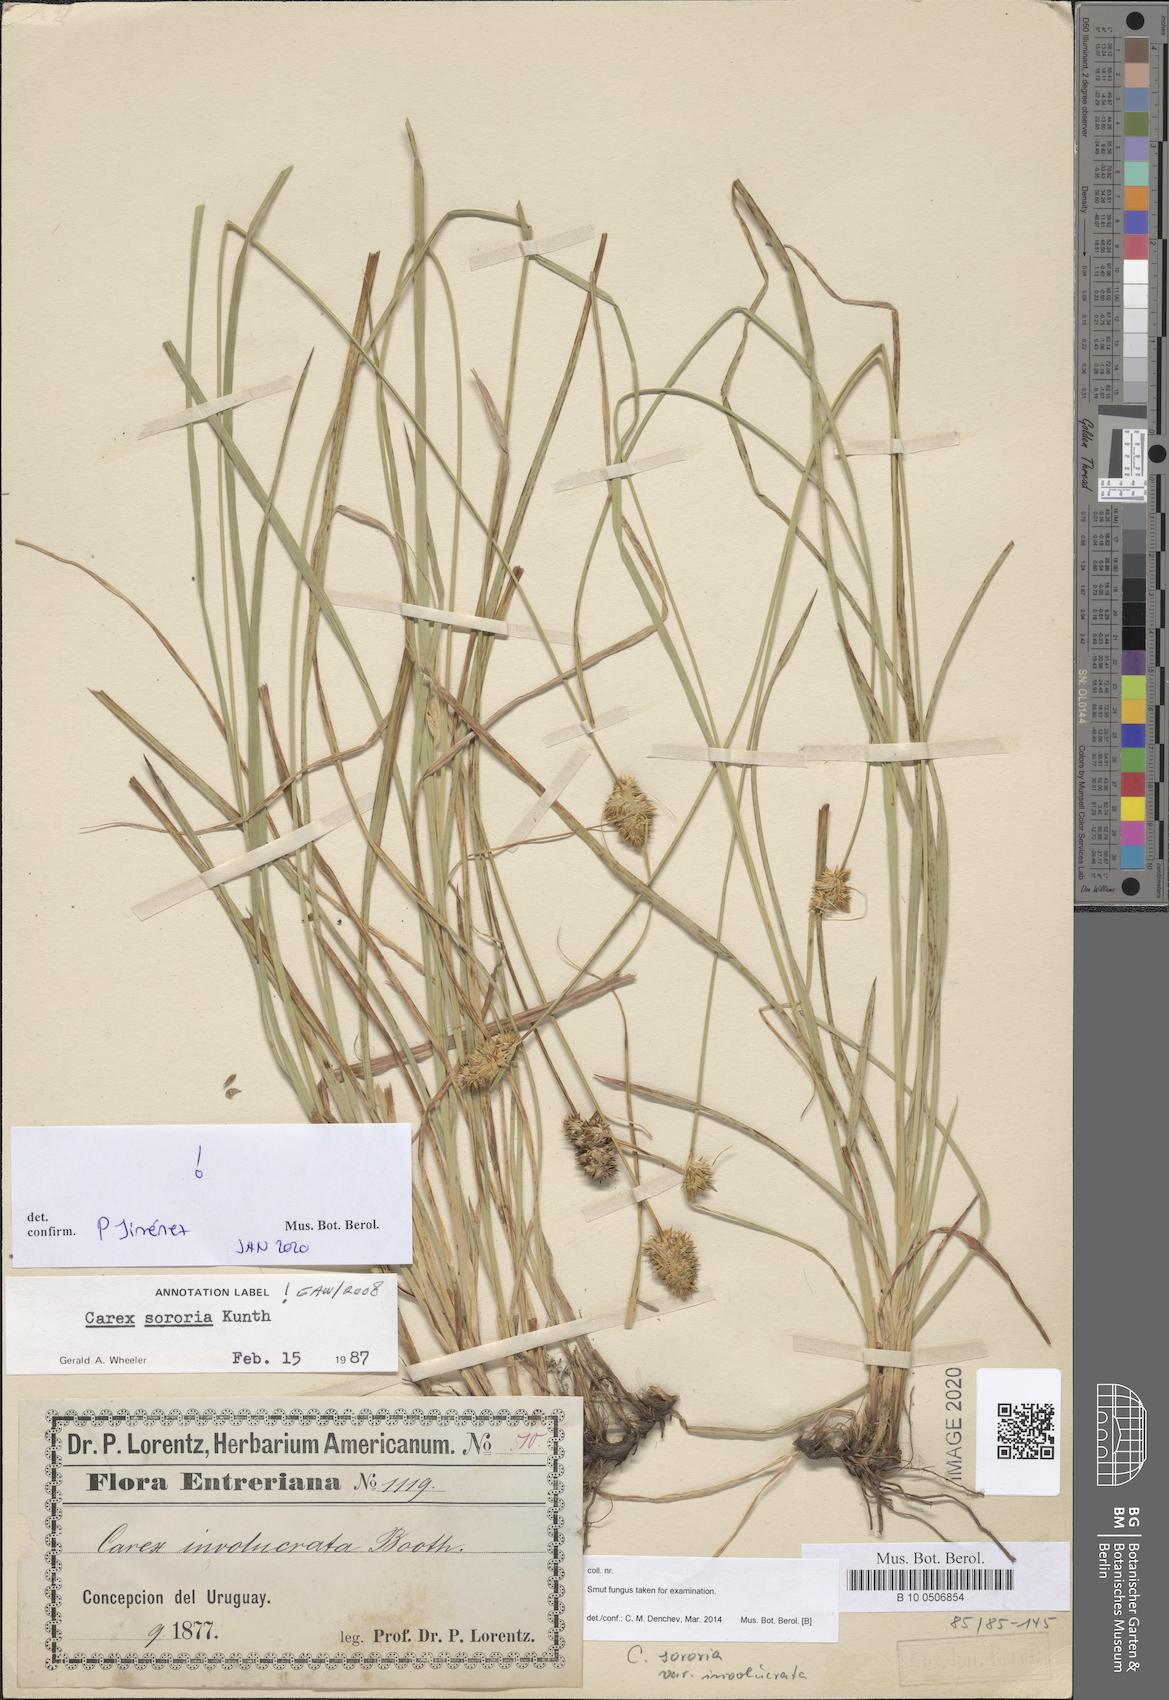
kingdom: Plantae
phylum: Tracheophyta
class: Liliopsida
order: Poales
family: Cyperaceae
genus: Carex
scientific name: Carex fossa
